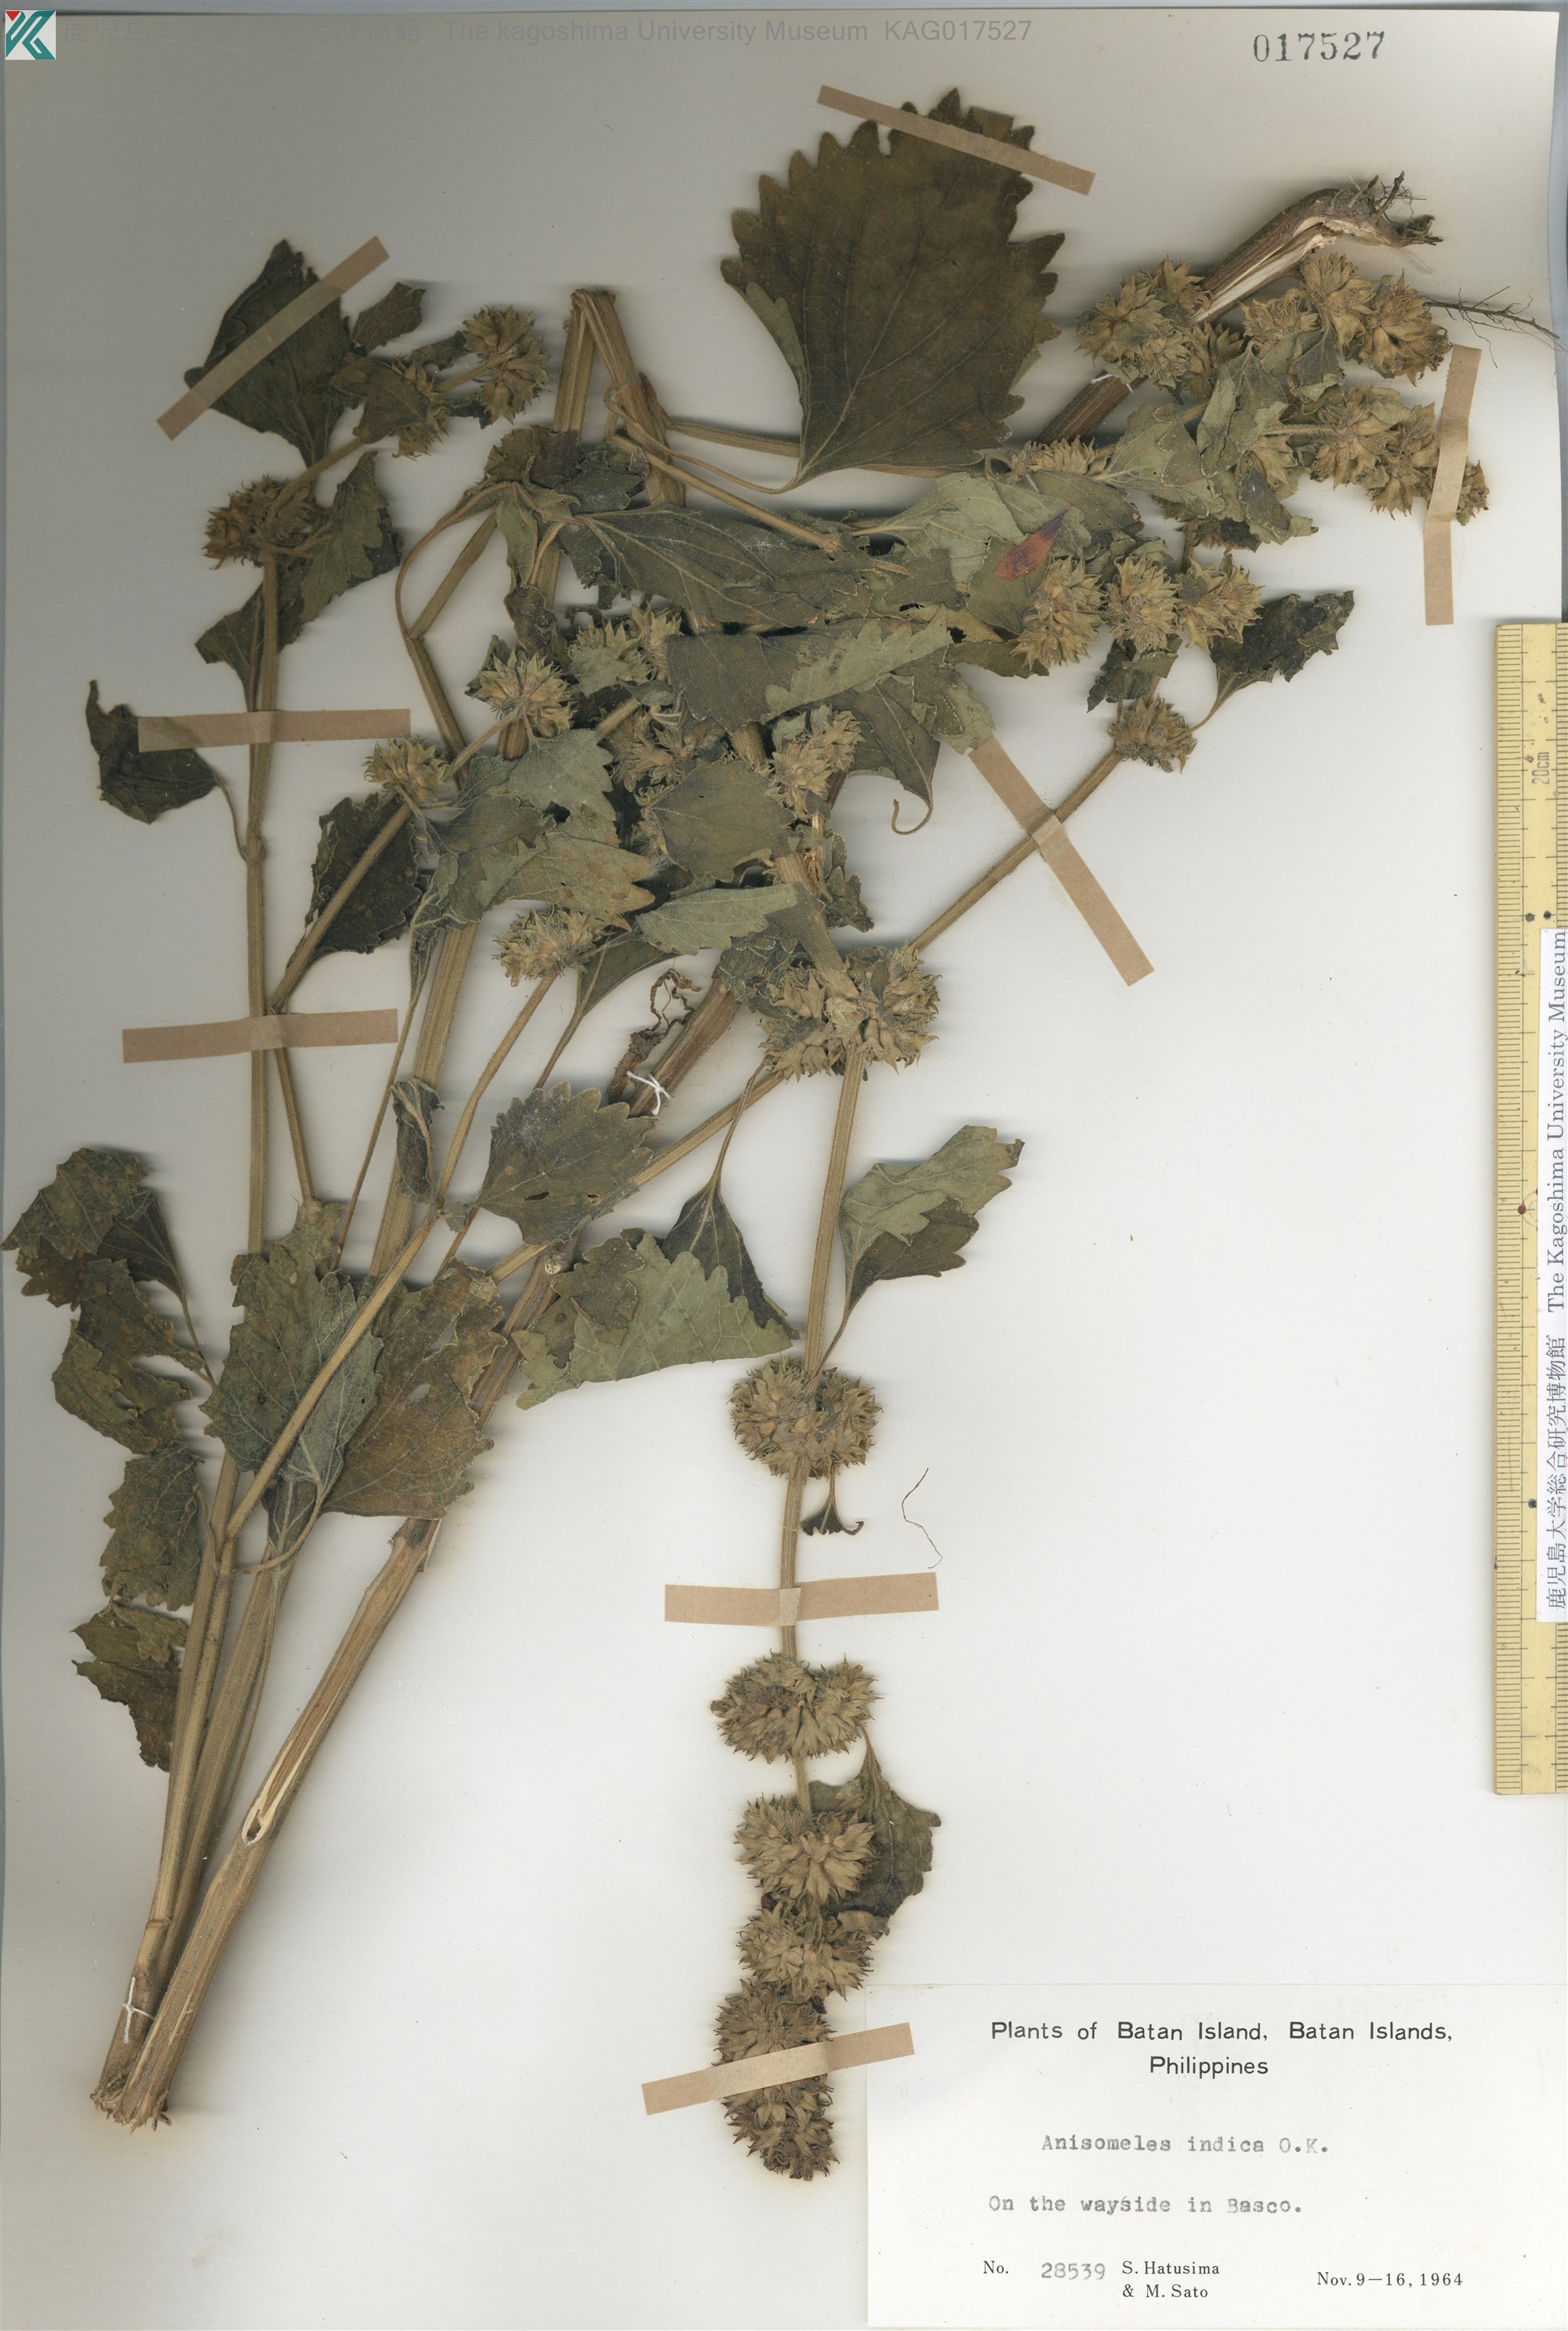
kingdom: Plantae
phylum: Tracheophyta
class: Magnoliopsida
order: Lamiales
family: Lamiaceae
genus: Anisomeles
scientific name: Anisomeles indica
